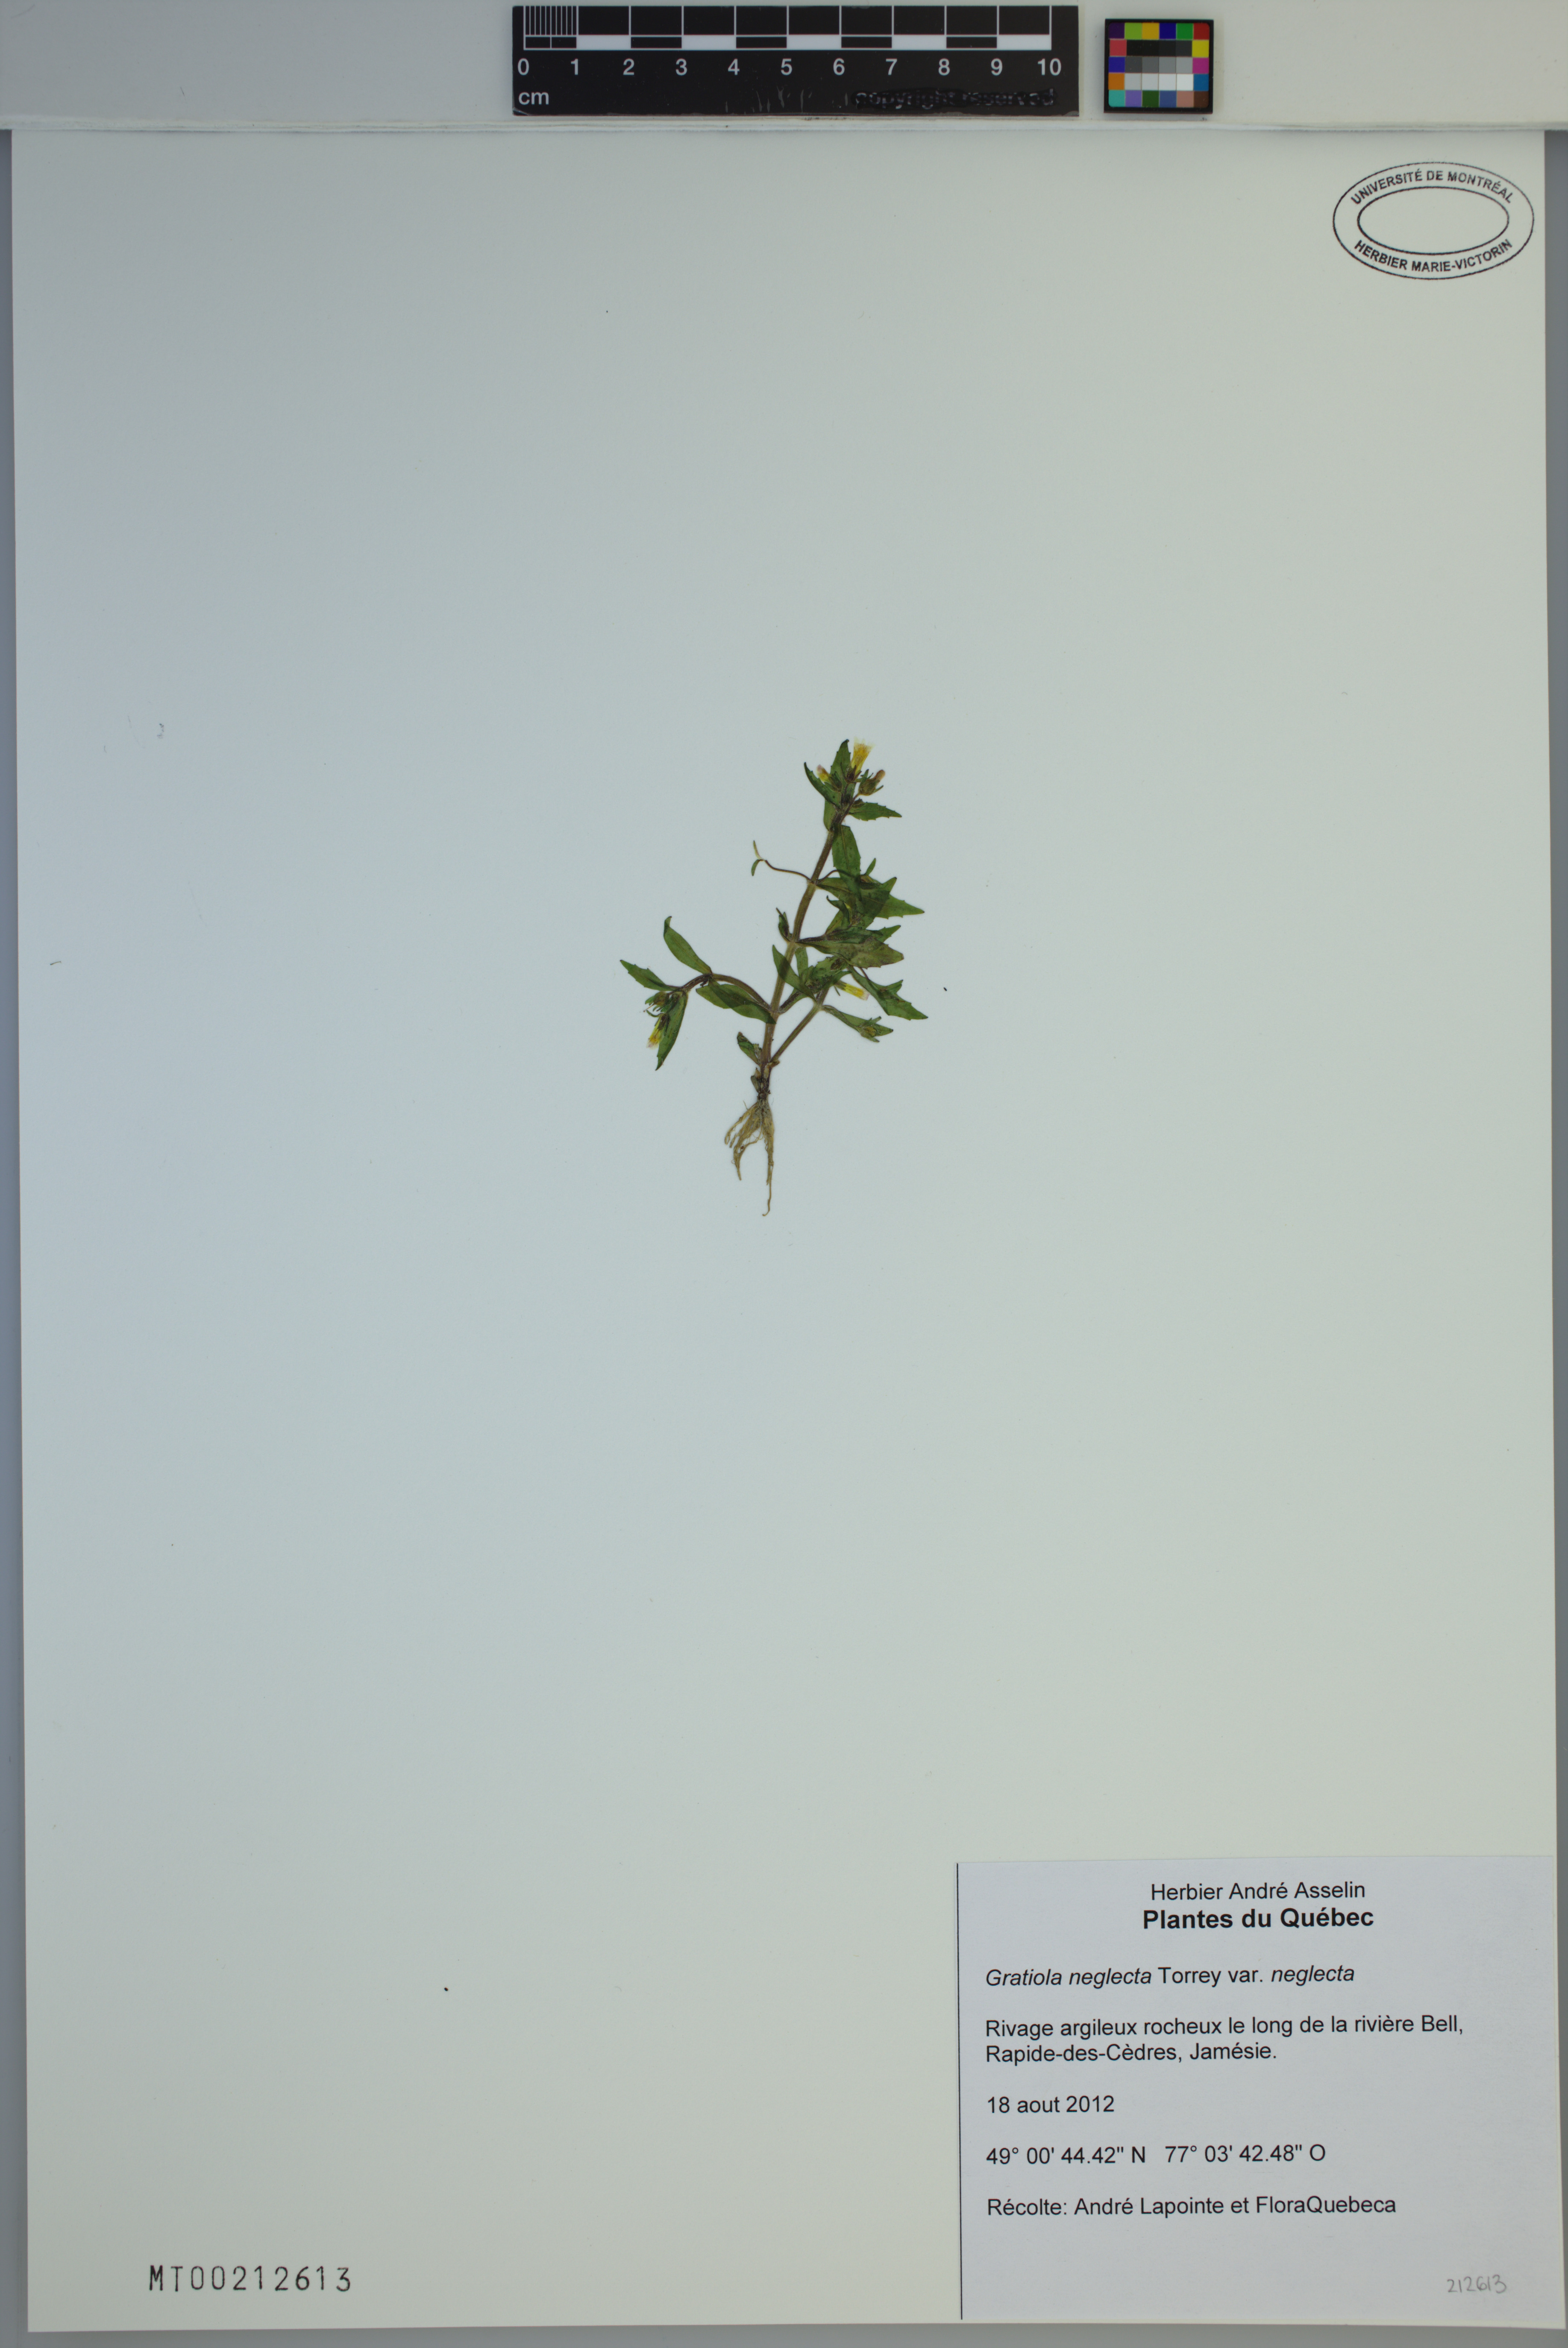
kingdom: Plantae
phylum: Tracheophyta
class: Magnoliopsida
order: Lamiales
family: Plantaginaceae
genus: Gratiola
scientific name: Gratiola neglecta
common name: American hedge-hyssop
